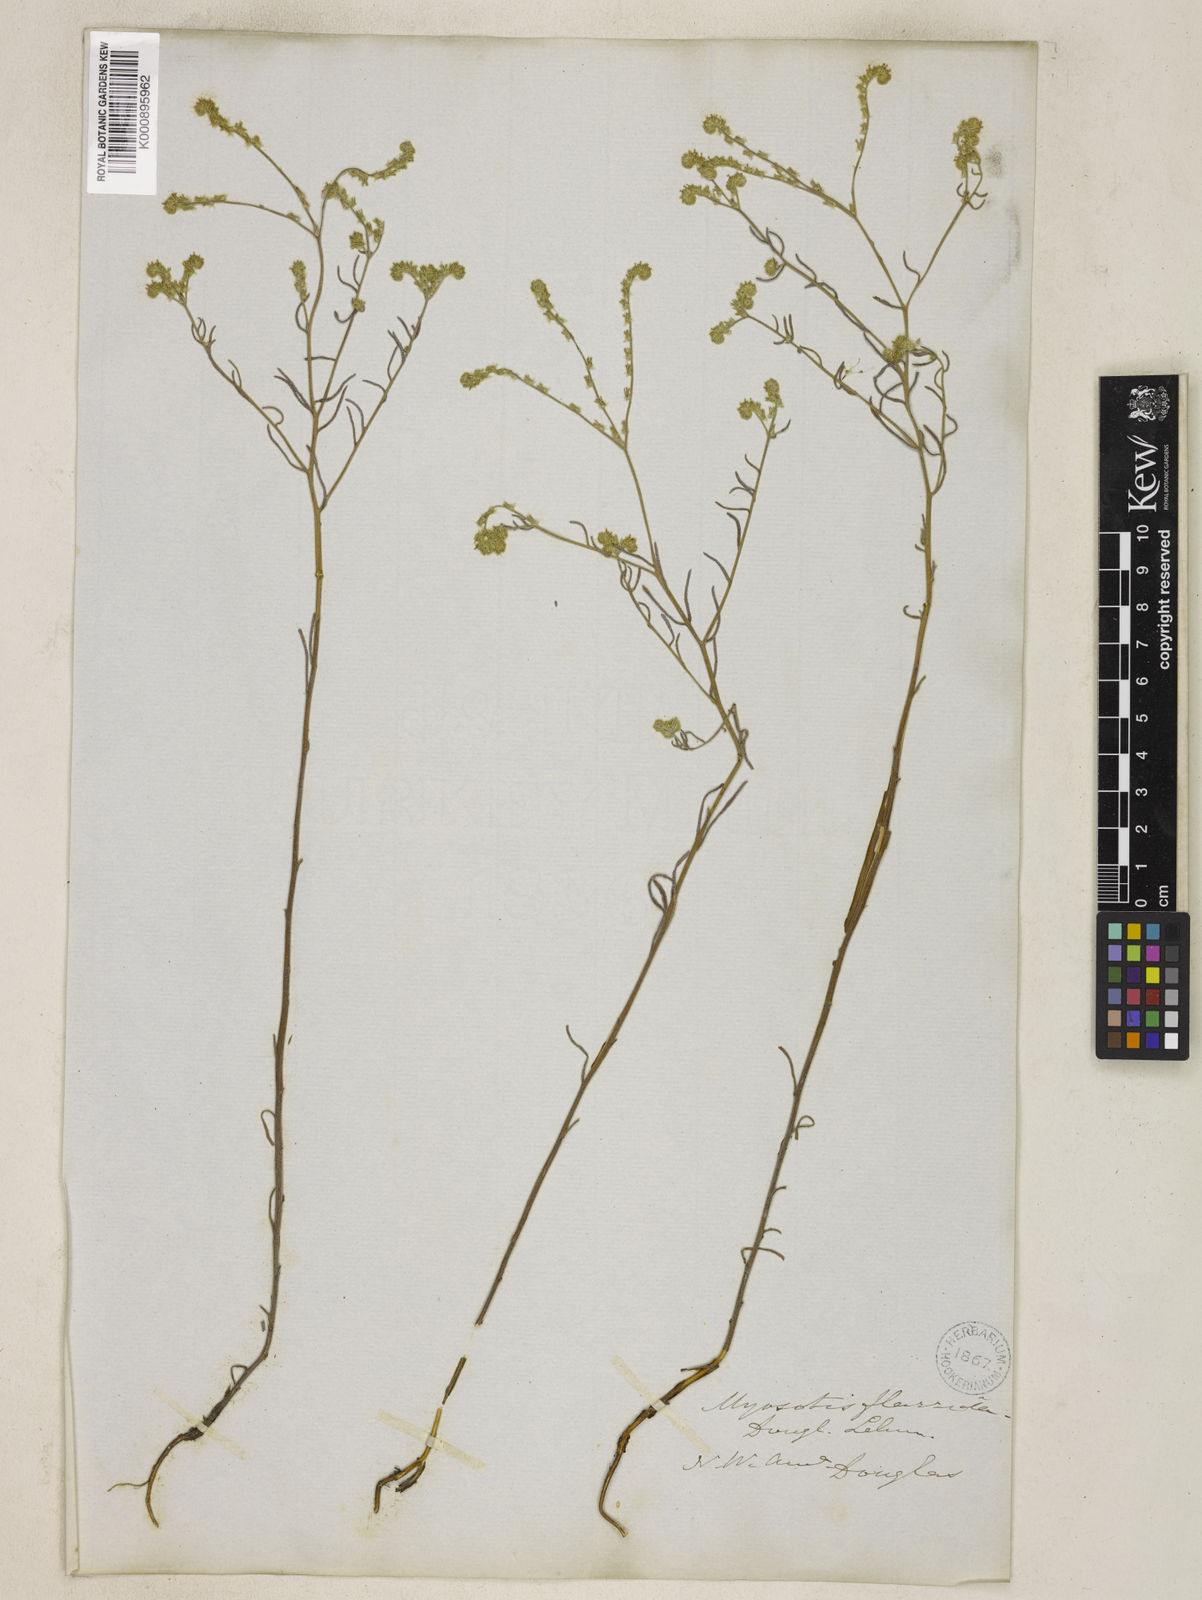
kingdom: Plantae
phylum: Tracheophyta
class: Magnoliopsida
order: Boraginales
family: Boraginaceae
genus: Cryptantha
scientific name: Cryptantha flaccida
